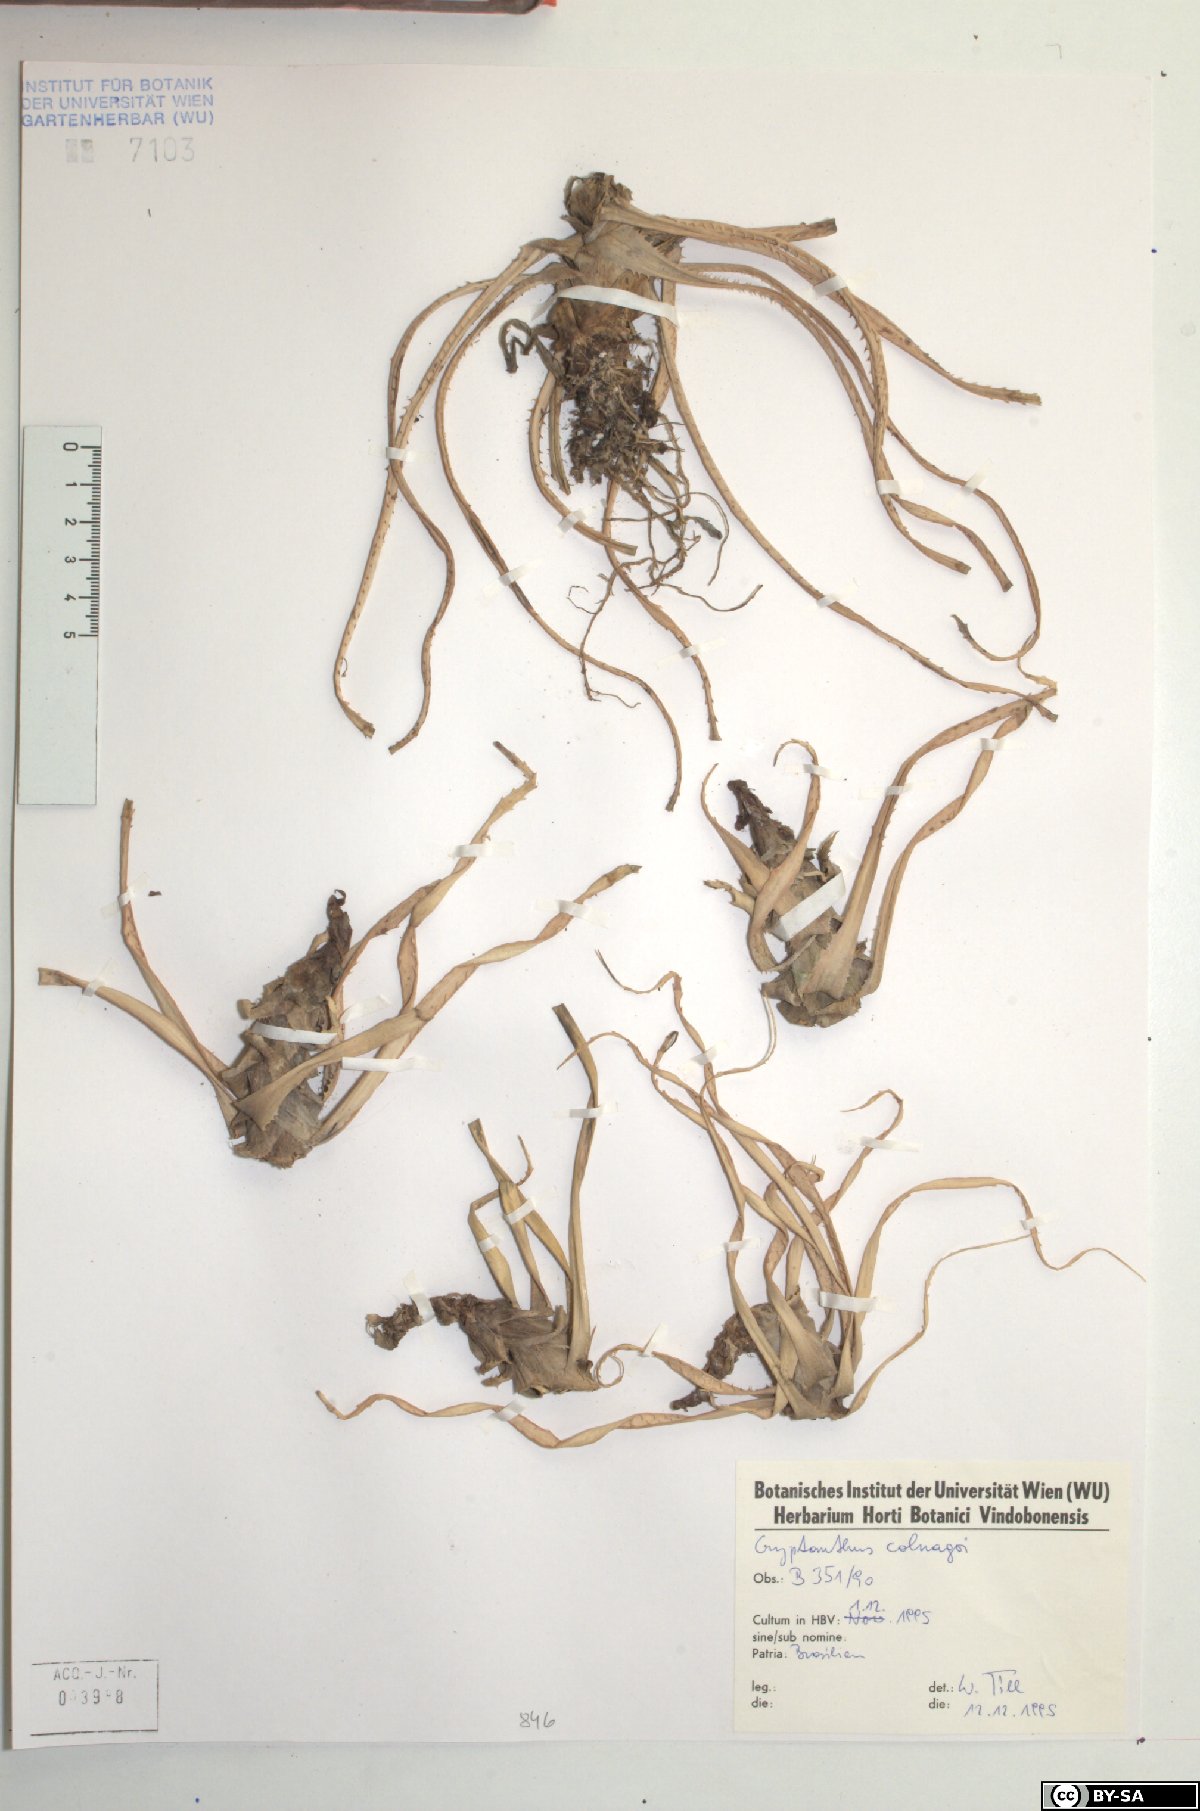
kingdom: Plantae
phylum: Tracheophyta
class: Liliopsida
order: Poales
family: Bromeliaceae
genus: Cryptanthus
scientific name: Cryptanthus colnagoi
